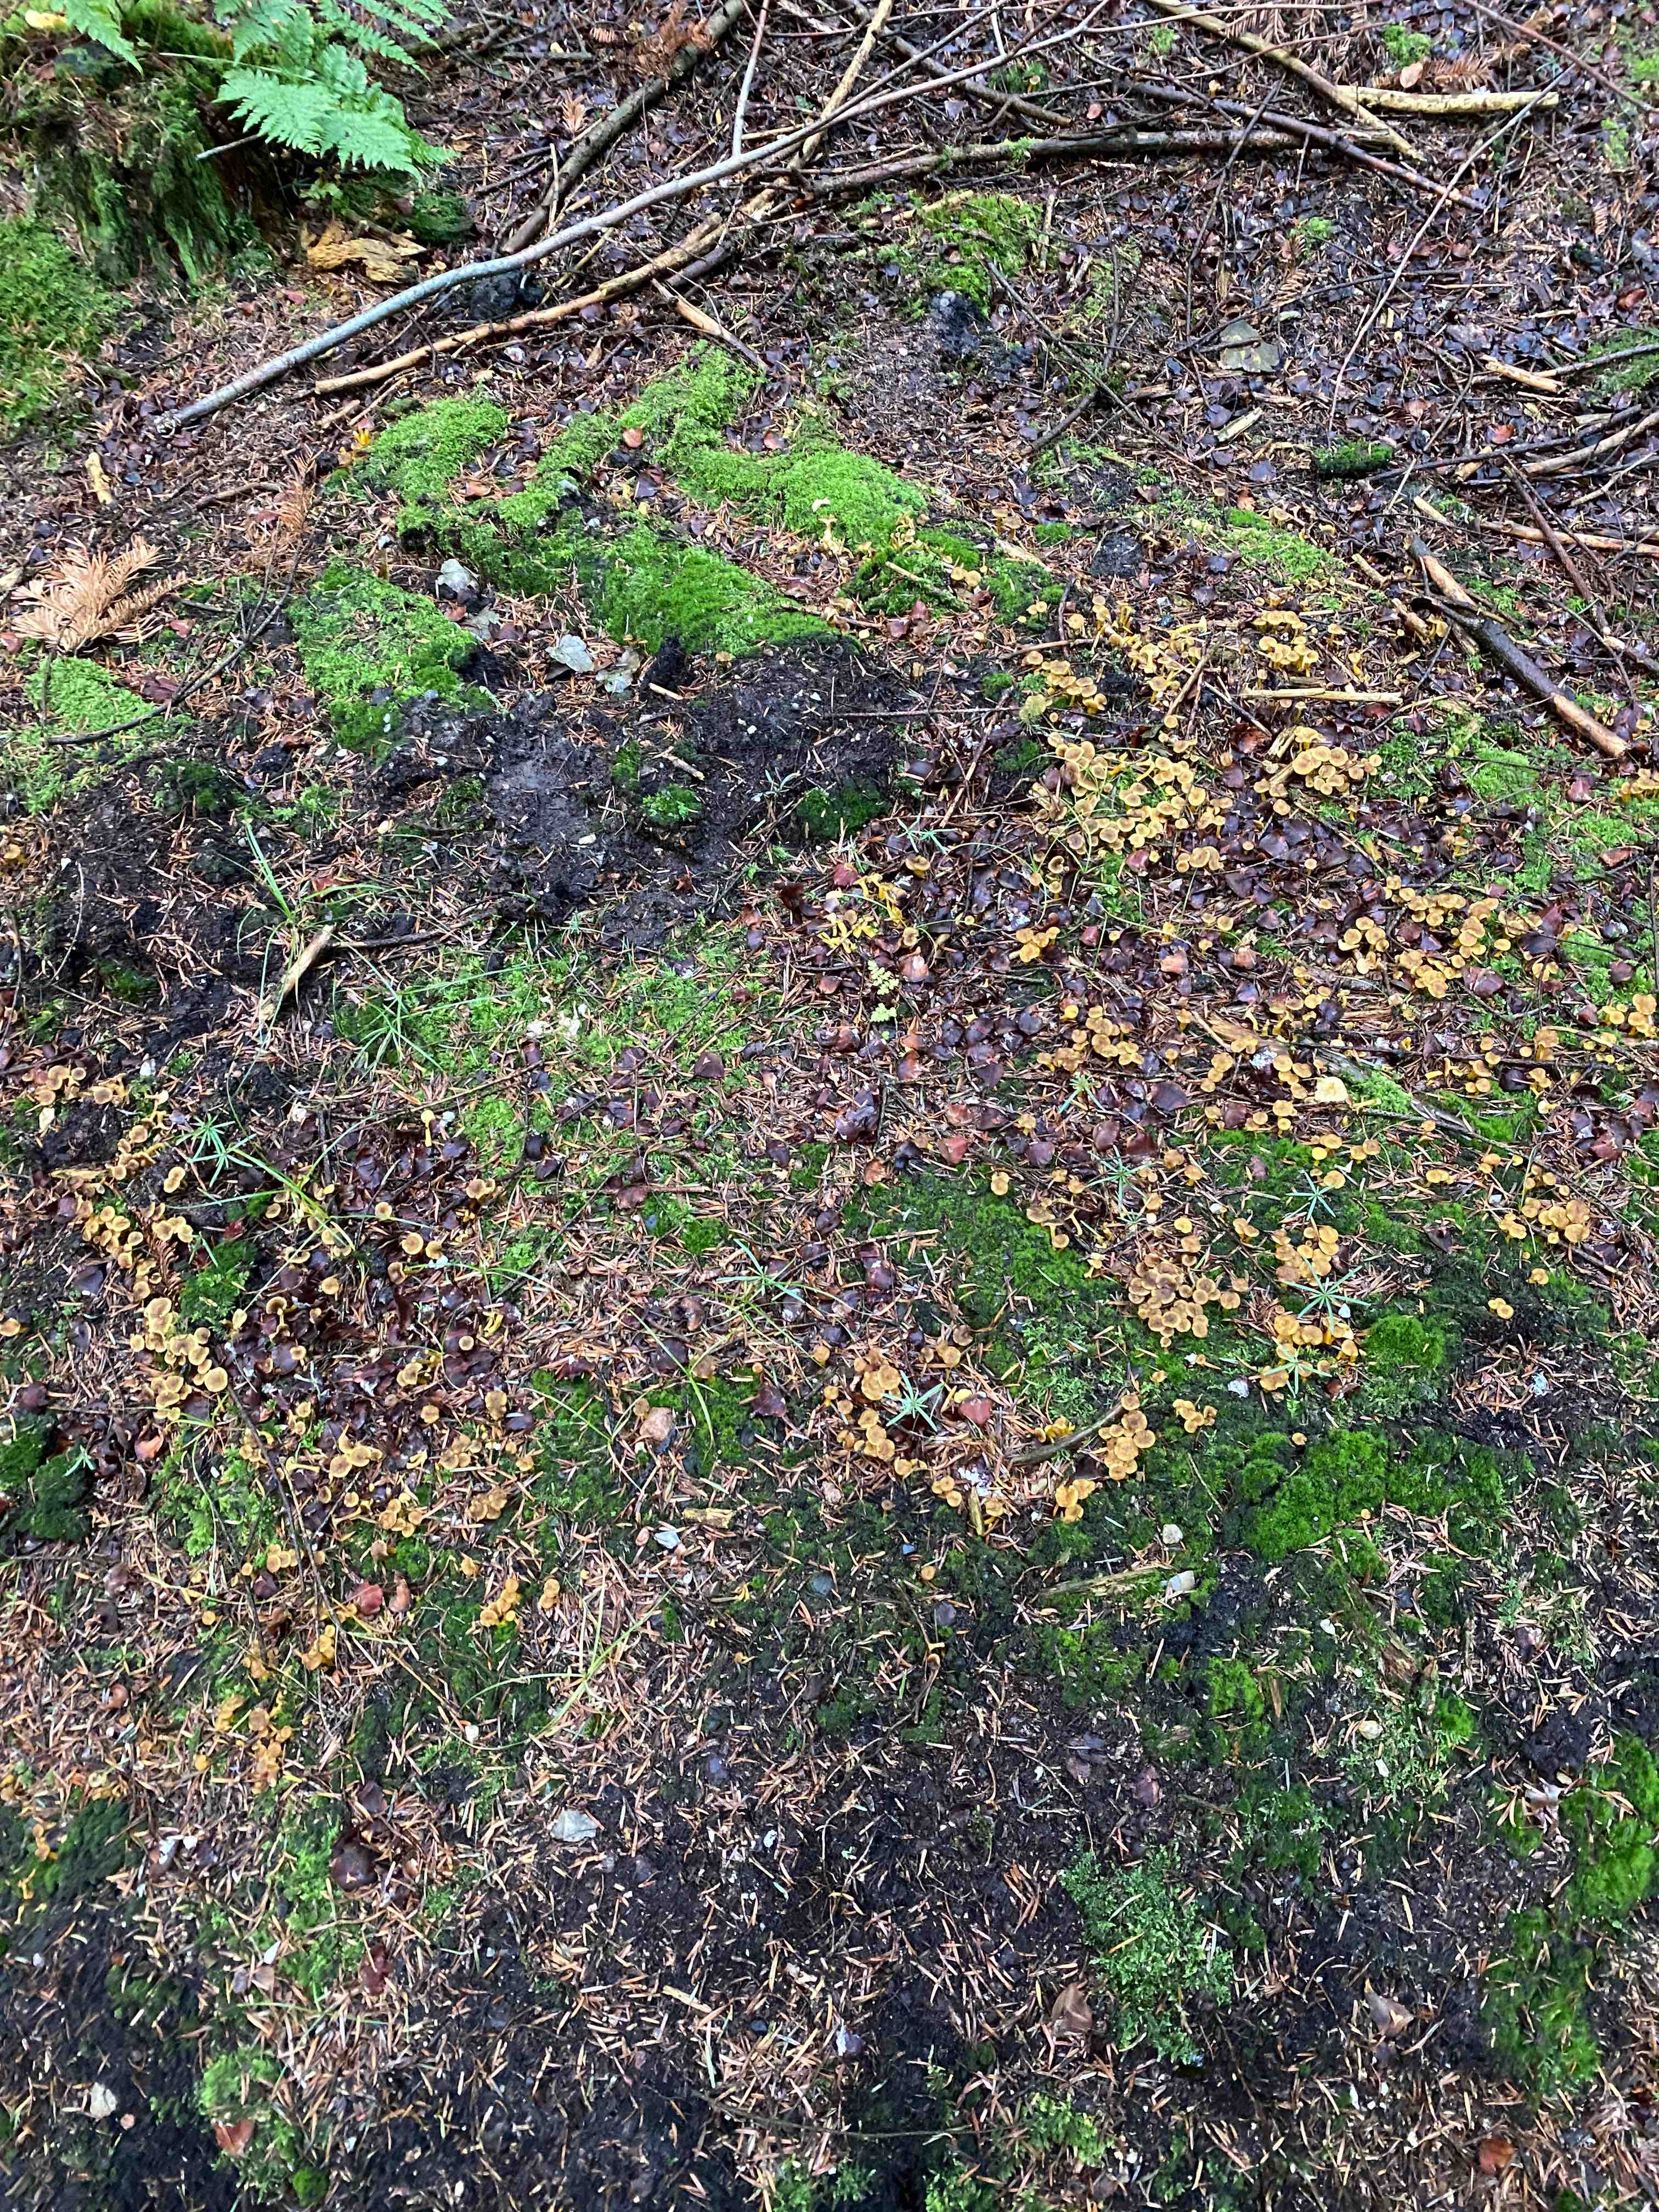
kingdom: Fungi
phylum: Basidiomycota
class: Agaricomycetes
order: Cantharellales
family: Hydnaceae
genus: Craterellus
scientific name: Craterellus tubaeformis
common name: tragt-kantarel
